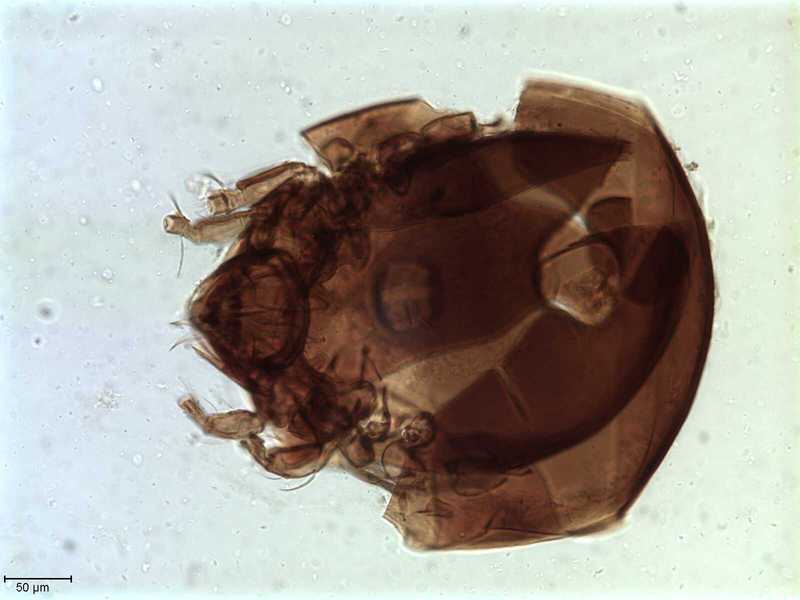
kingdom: Animalia
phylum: Arthropoda
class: Arachnida
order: Sarcoptiformes
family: Tegoribatidae
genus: Plakoribates
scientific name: Plakoribates multicuspidatus
